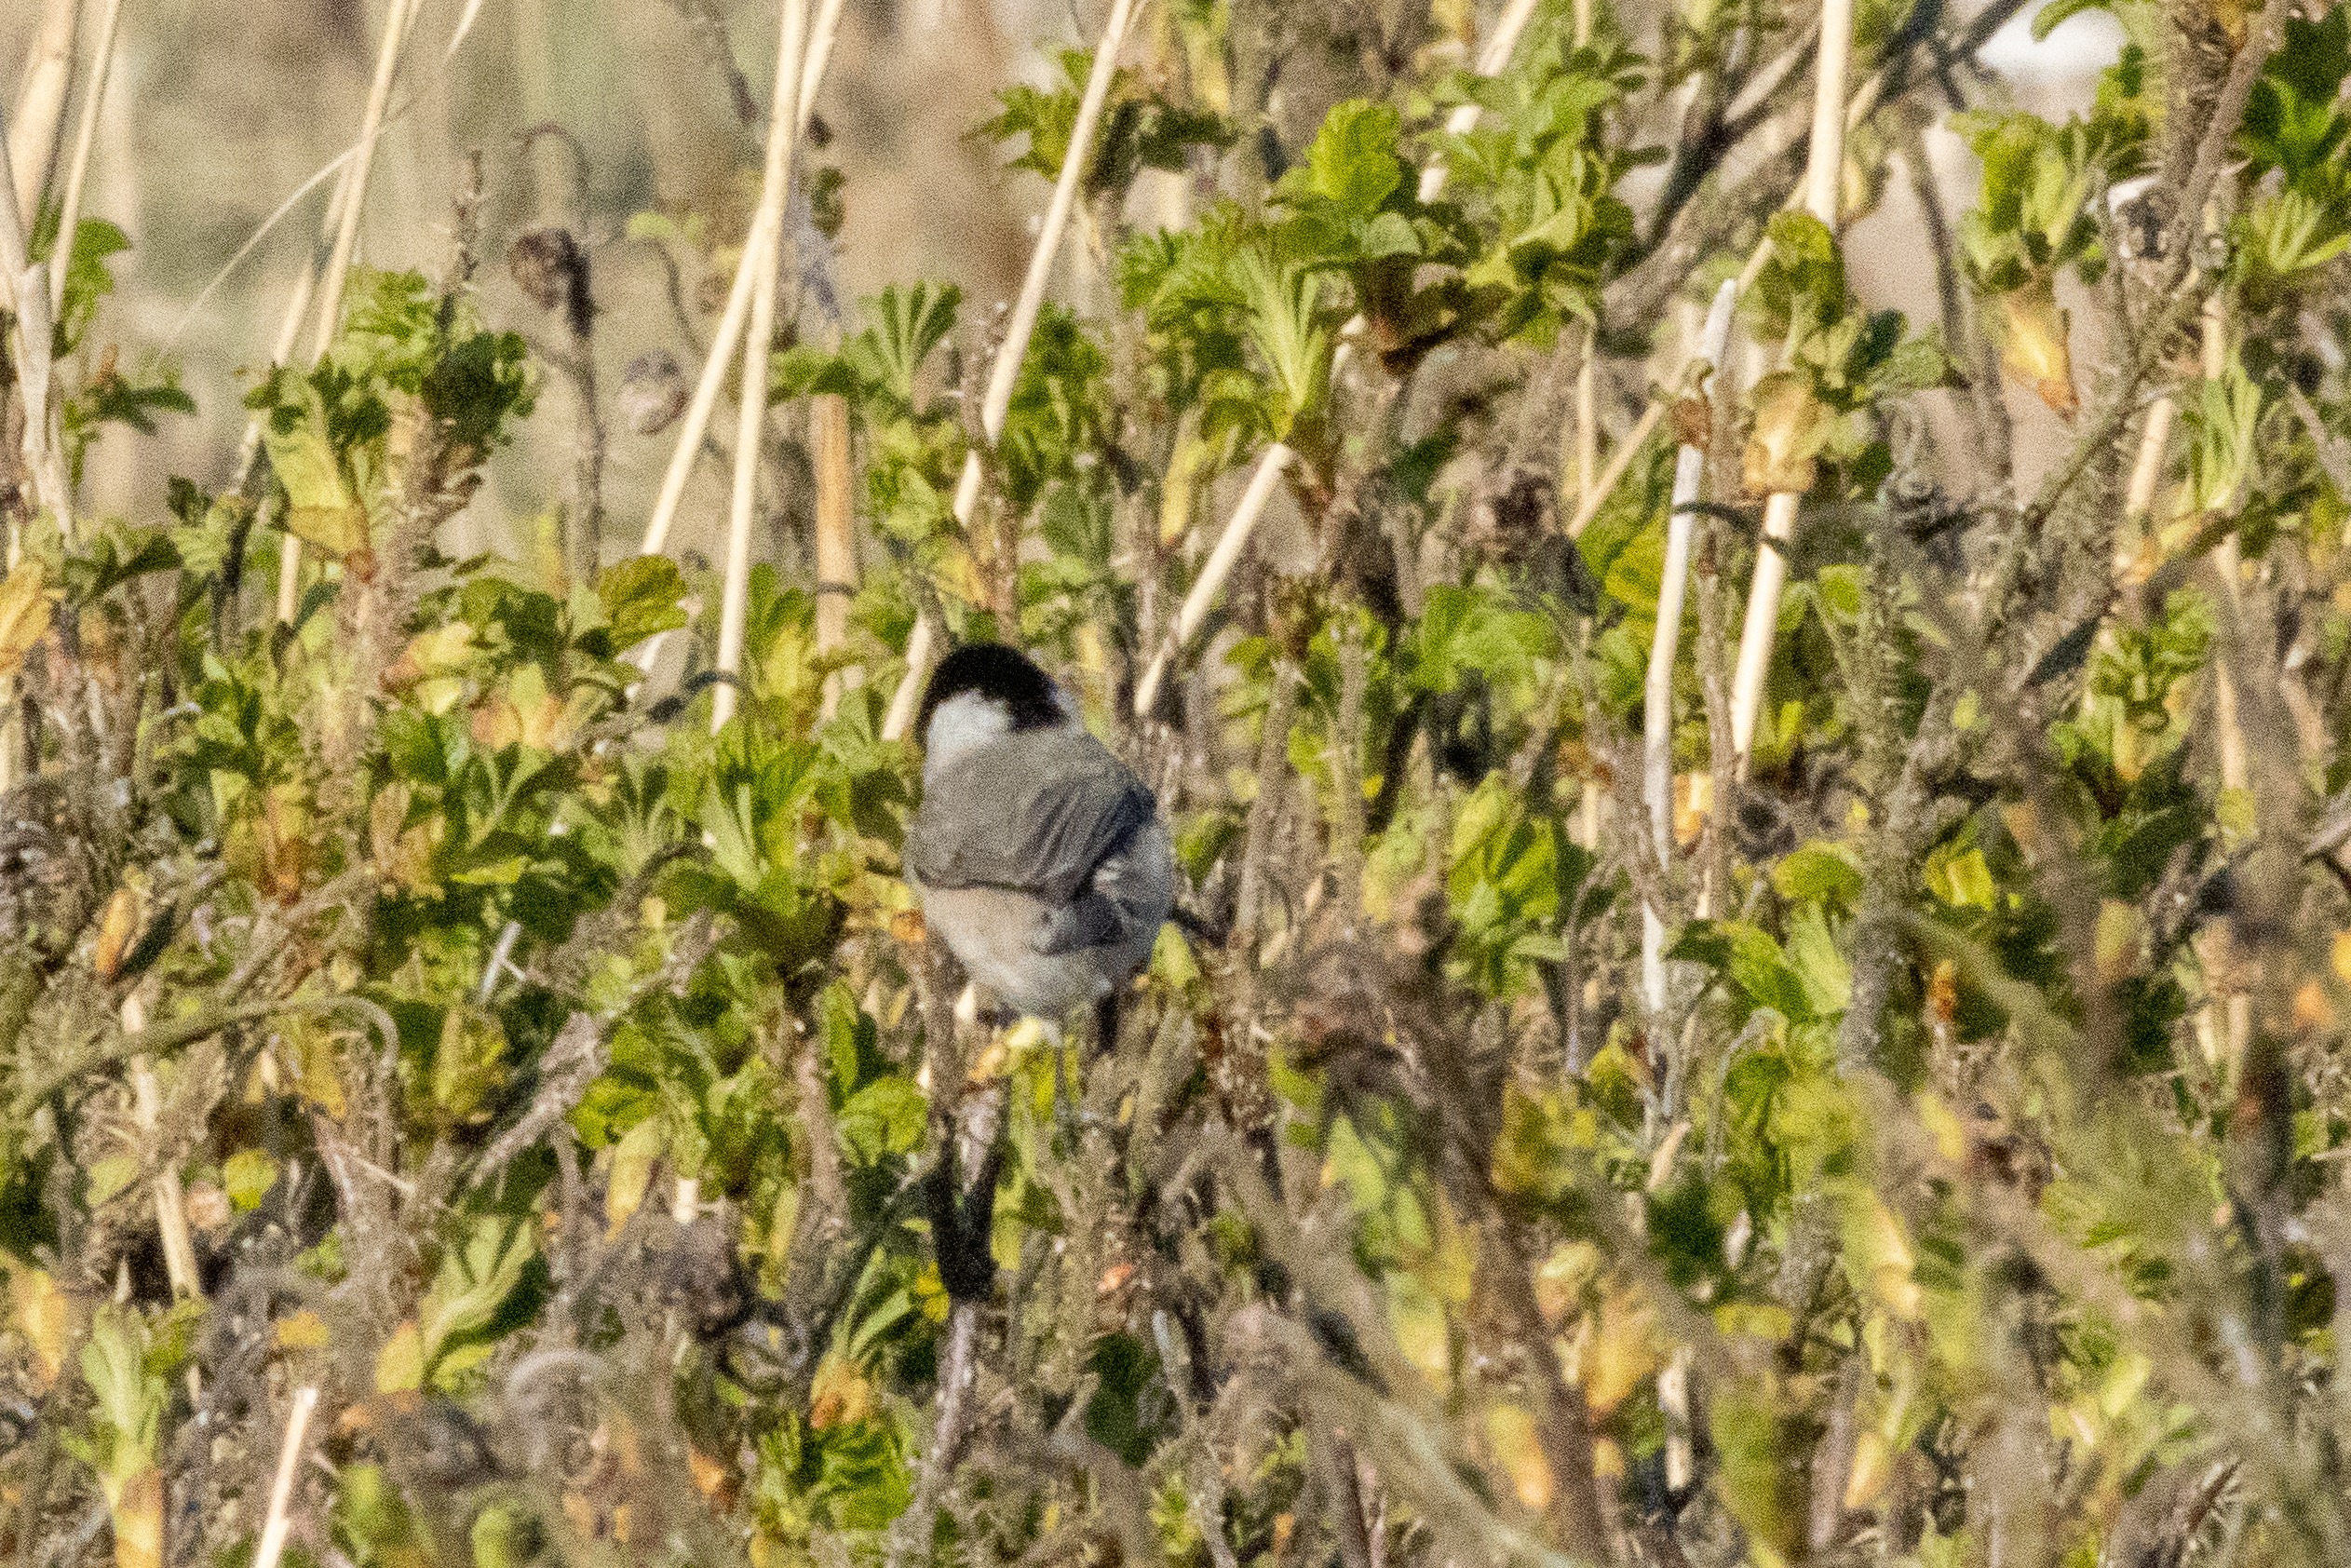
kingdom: Animalia
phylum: Chordata
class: Aves
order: Passeriformes
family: Paridae
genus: Poecile
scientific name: Poecile palustris
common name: Sumpmejse
